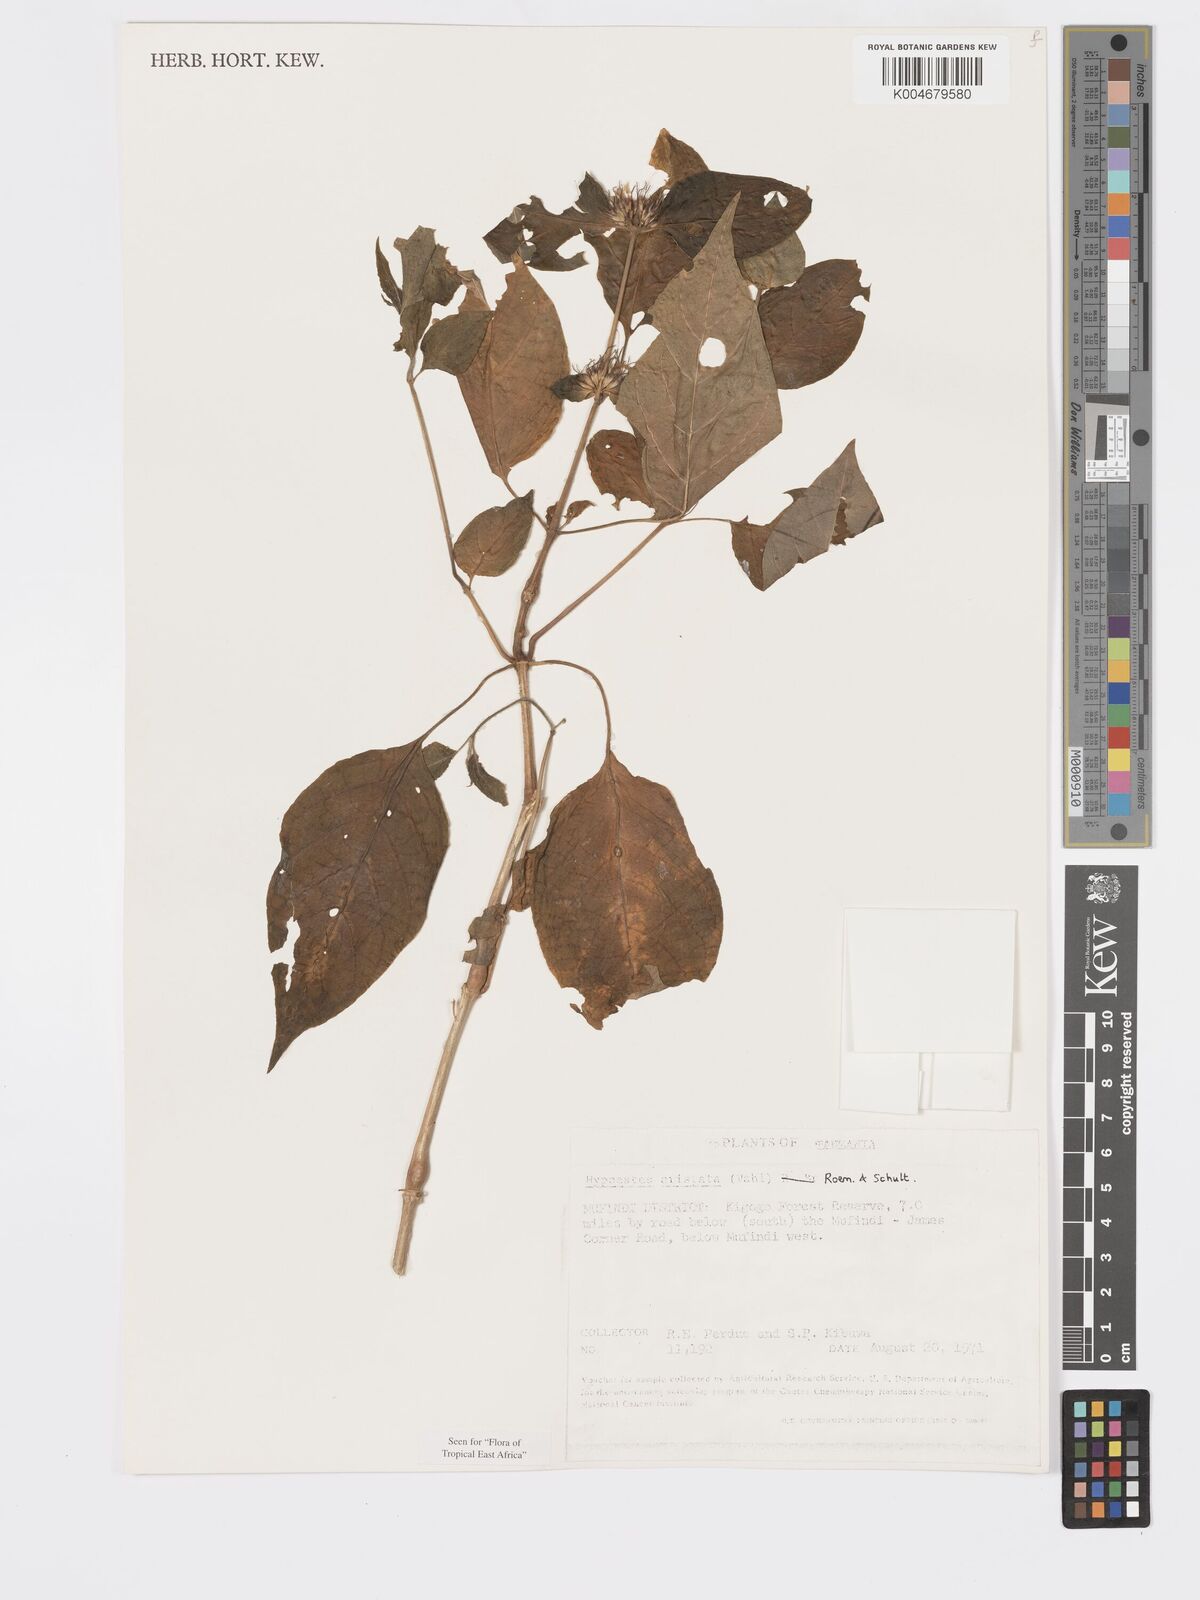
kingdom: Plantae
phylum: Tracheophyta
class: Magnoliopsida
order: Lamiales
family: Acanthaceae
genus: Hypoestes
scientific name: Hypoestes aristata
